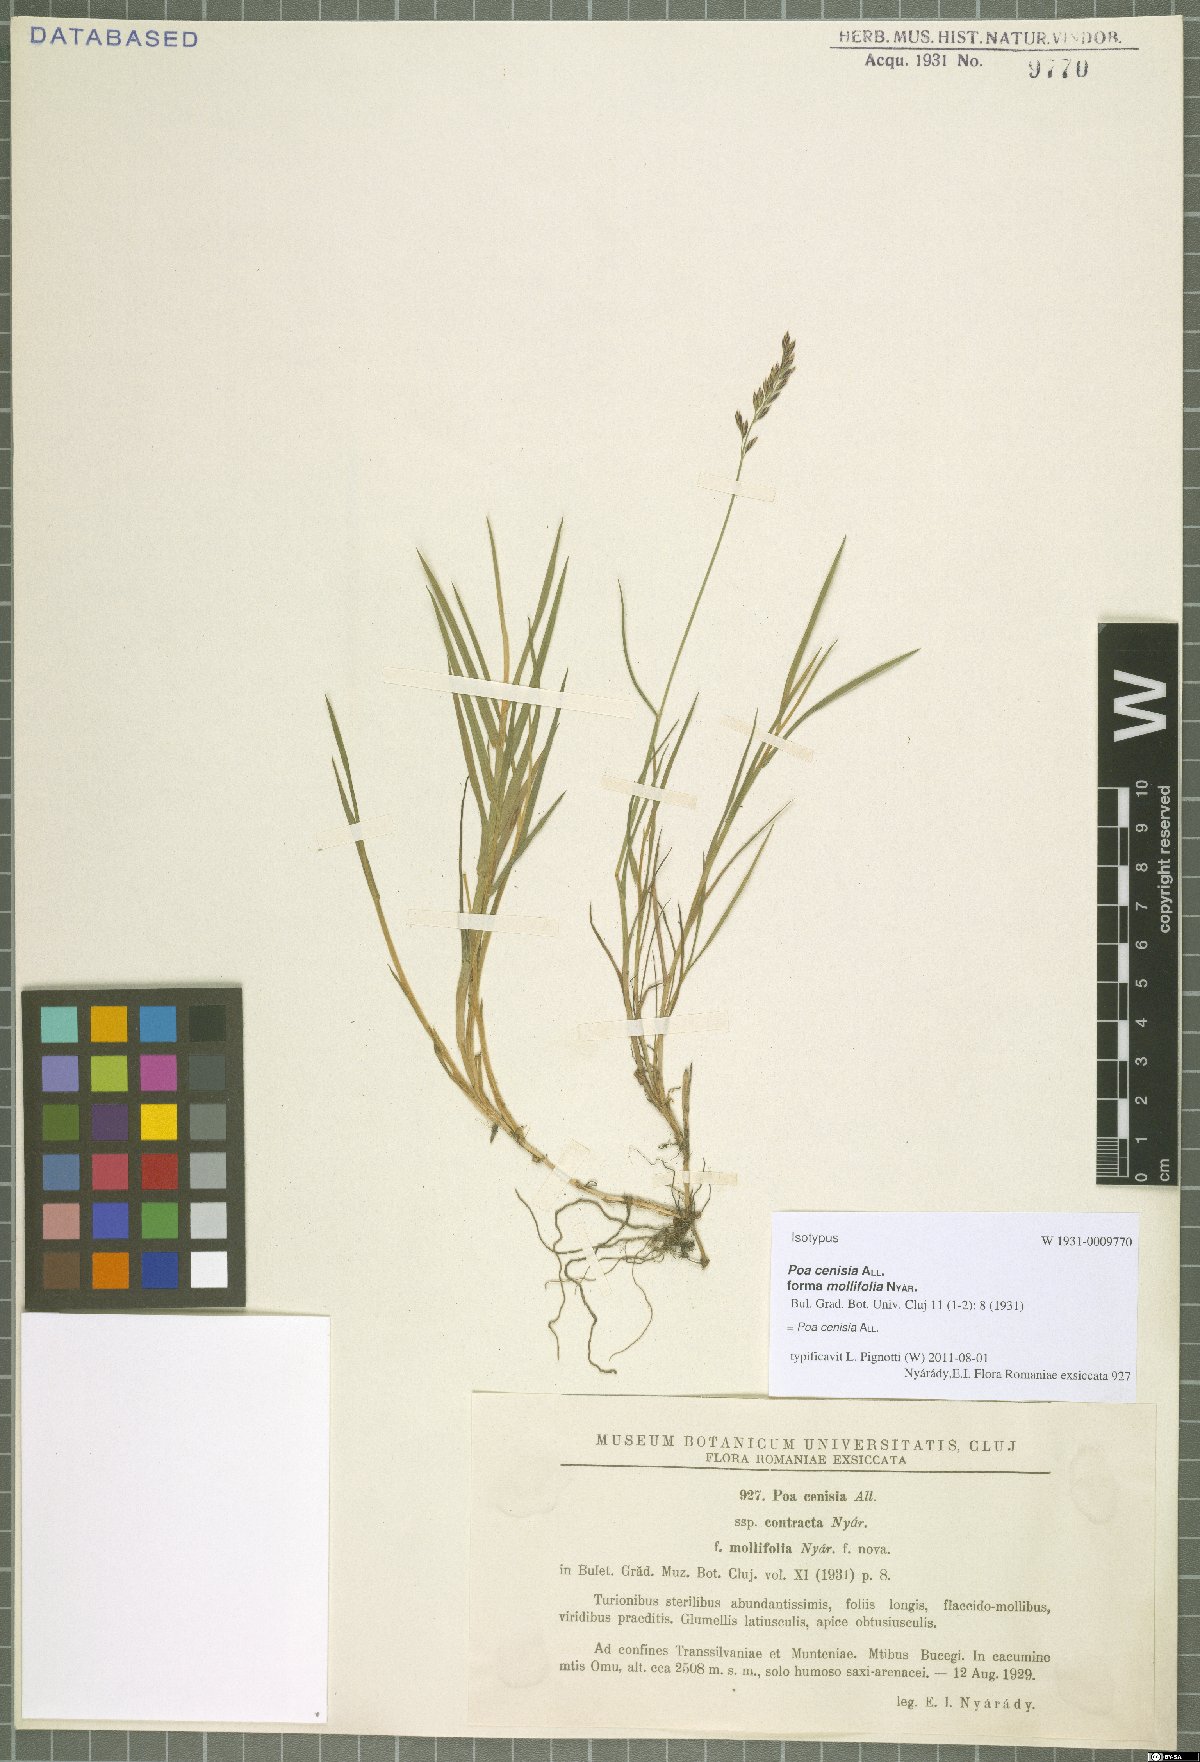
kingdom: Plantae
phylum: Tracheophyta
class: Liliopsida
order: Poales
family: Poaceae
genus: Poa
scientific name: Poa cenisia
